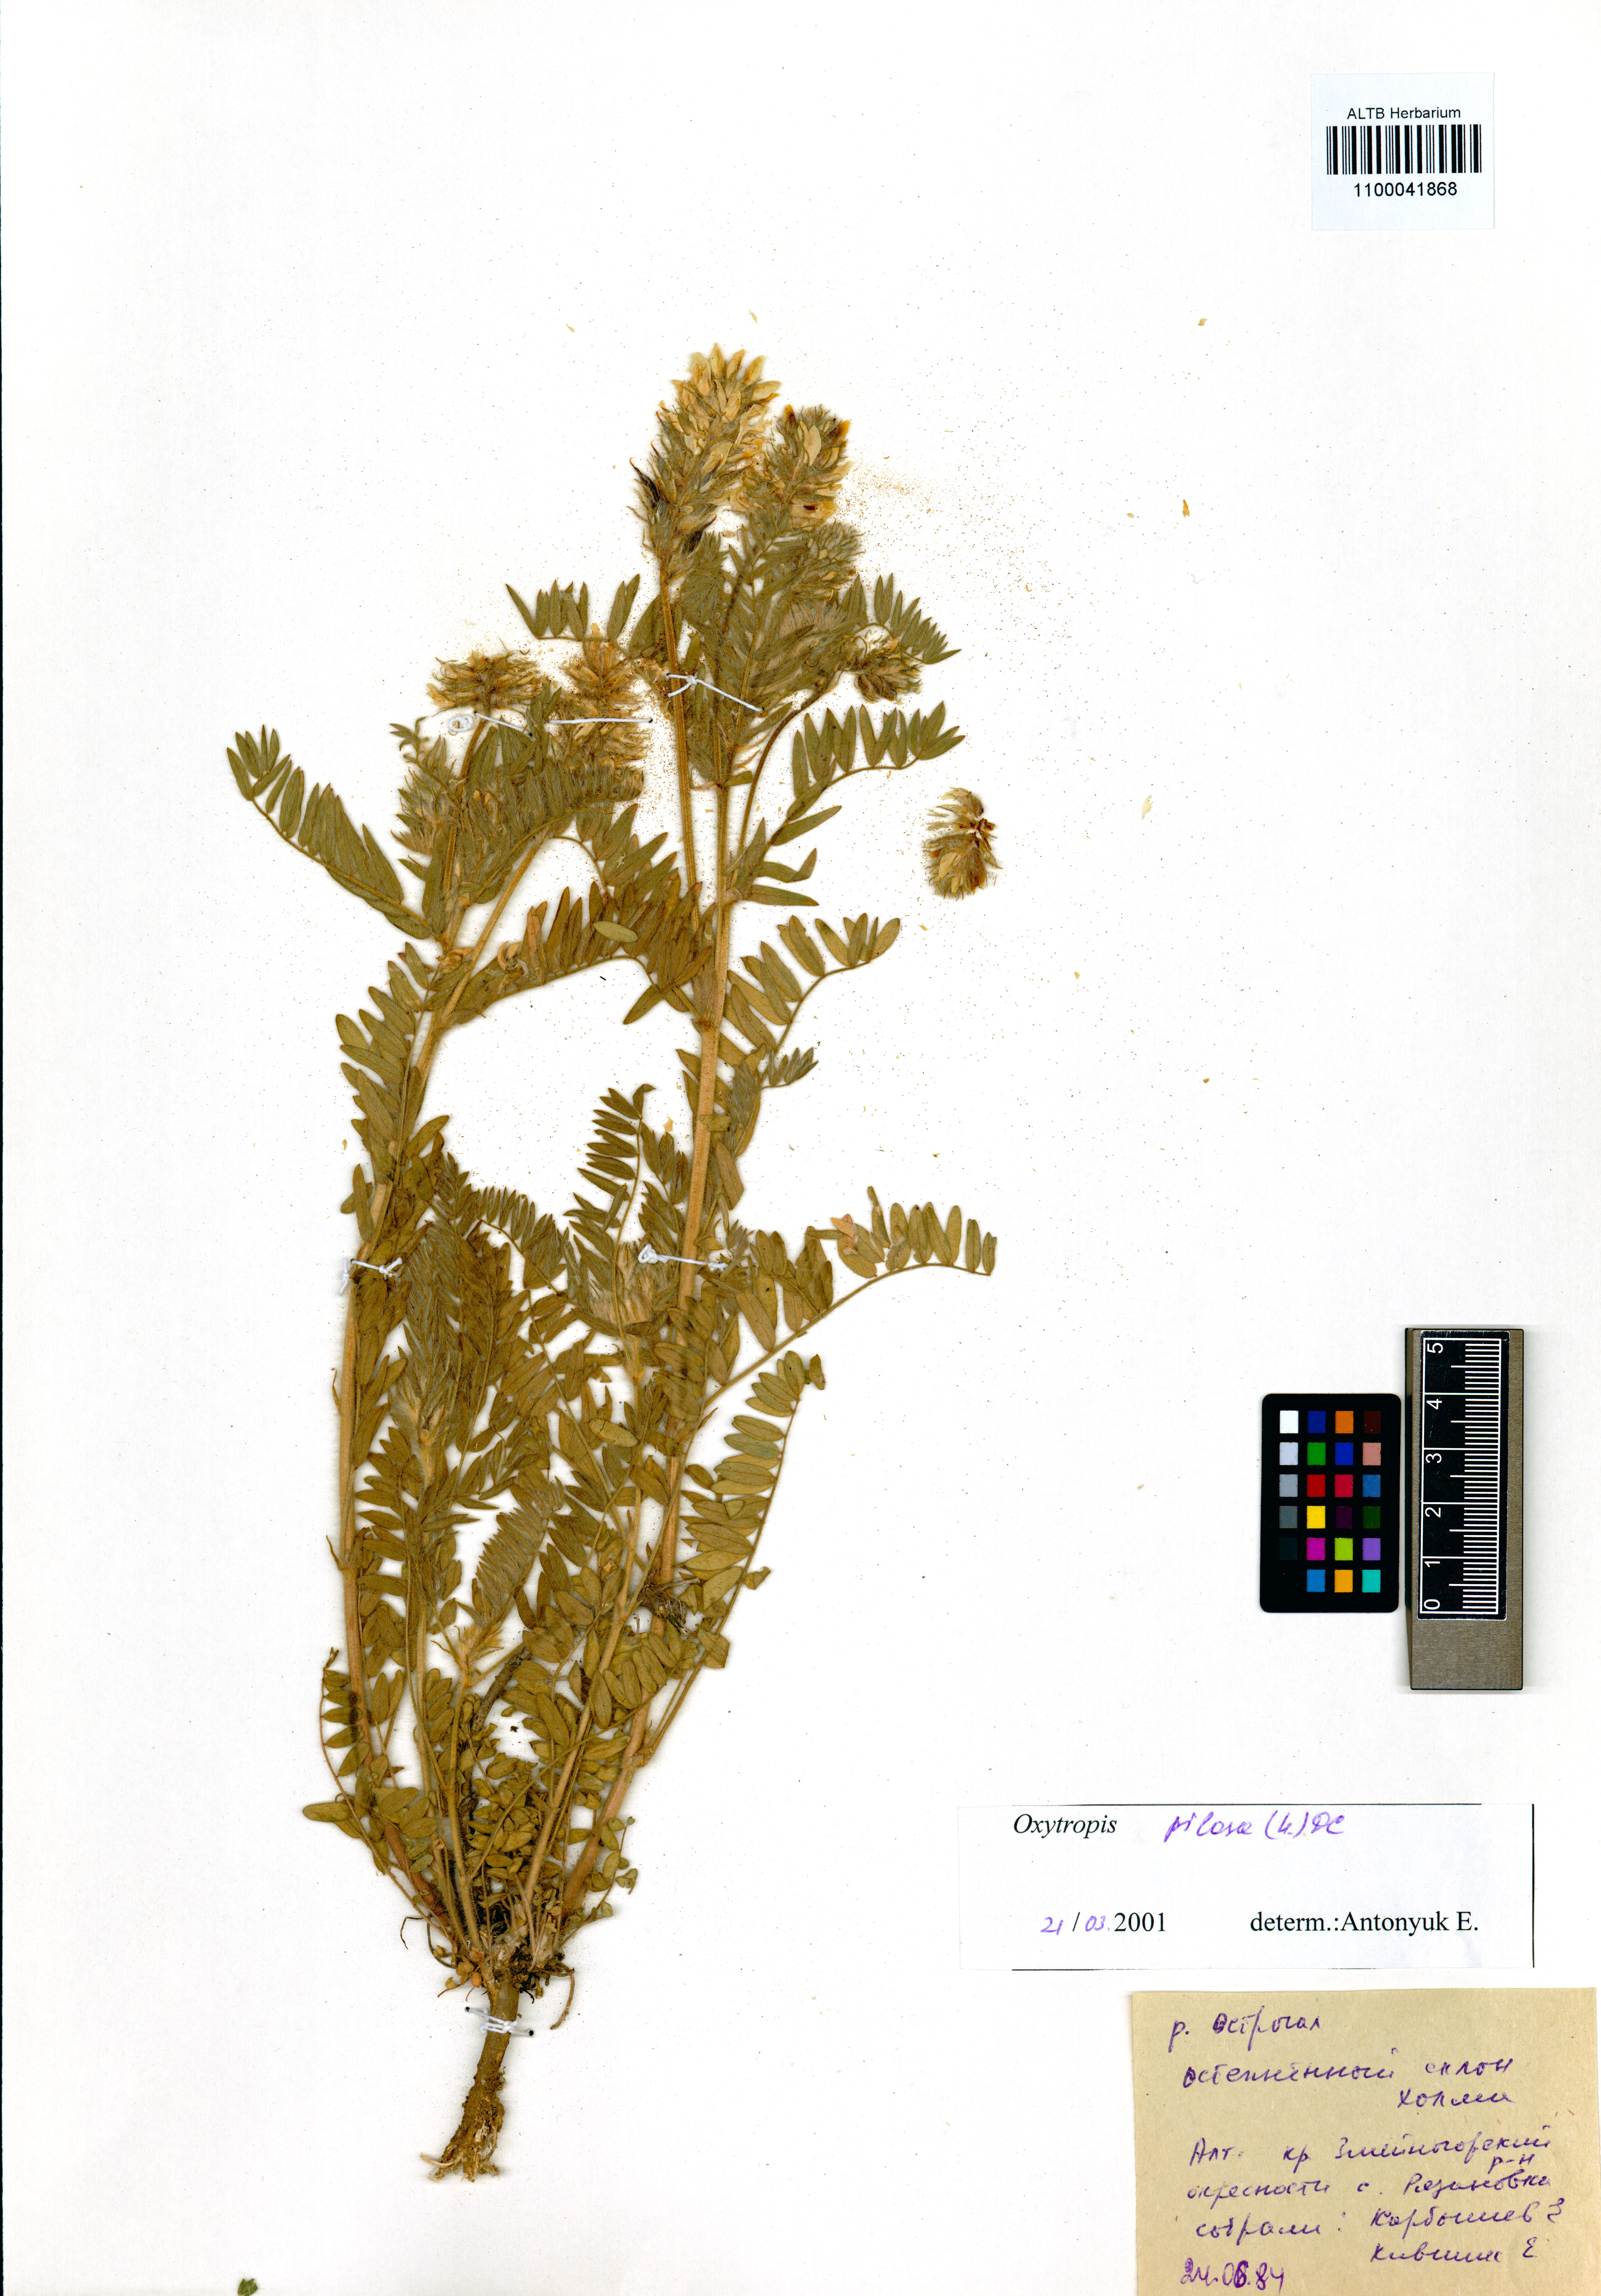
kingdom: Plantae
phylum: Tracheophyta
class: Magnoliopsida
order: Fabales
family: Fabaceae
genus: Oxytropis
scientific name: Oxytropis pilosa
